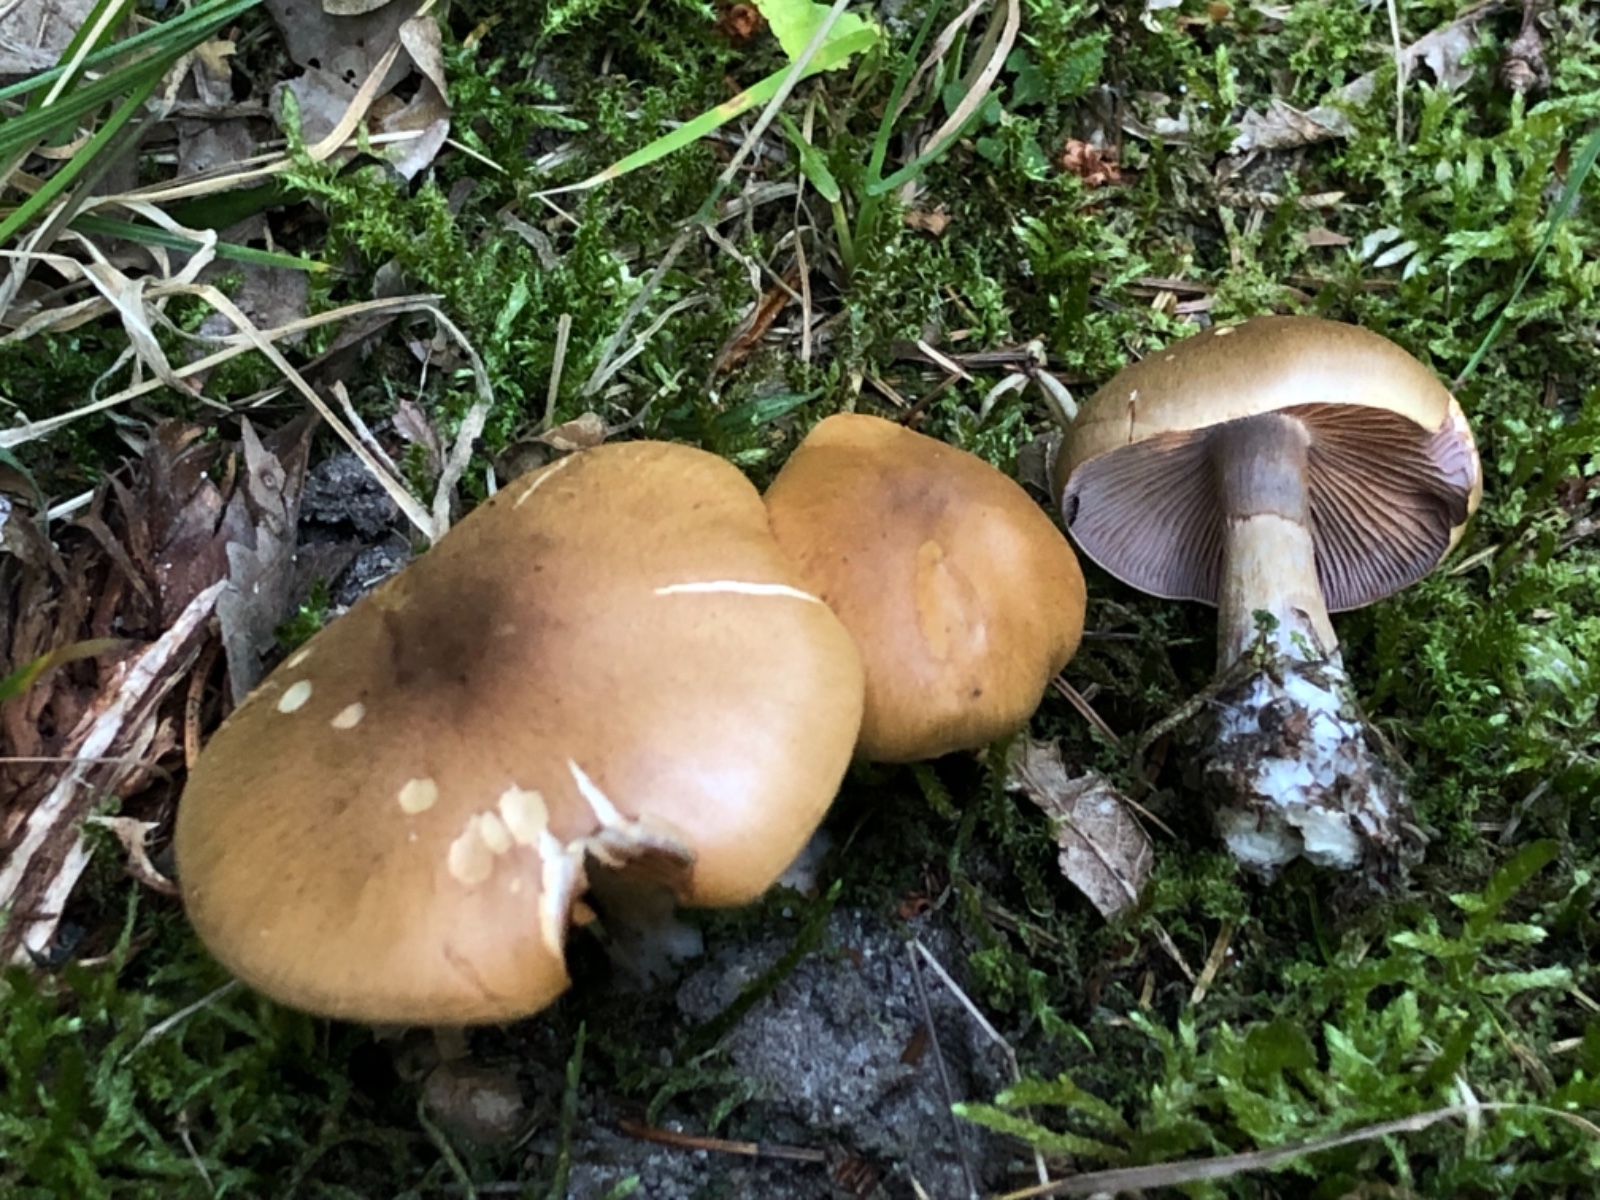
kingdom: Fungi
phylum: Basidiomycota
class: Agaricomycetes
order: Agaricales
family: Cortinariaceae
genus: Cortinarius
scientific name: Cortinarius
